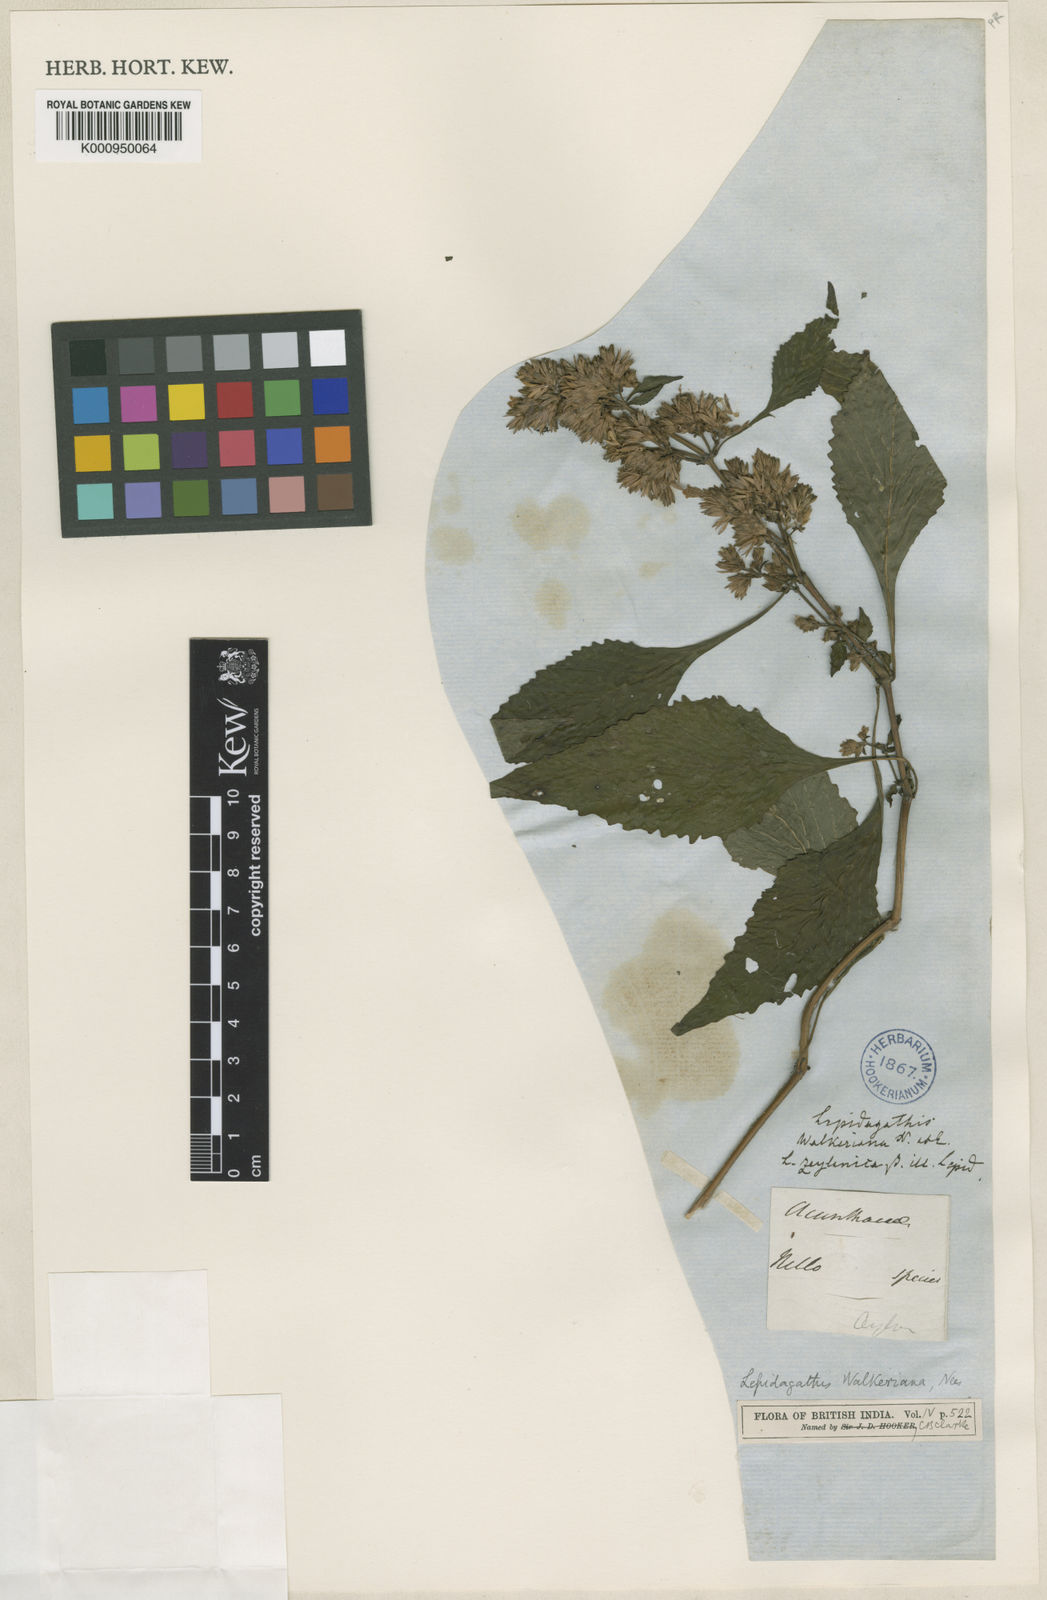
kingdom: Plantae
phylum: Tracheophyta
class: Magnoliopsida
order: Lamiales
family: Acanthaceae
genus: Lepidagathis
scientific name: Lepidagathis walkeriana
